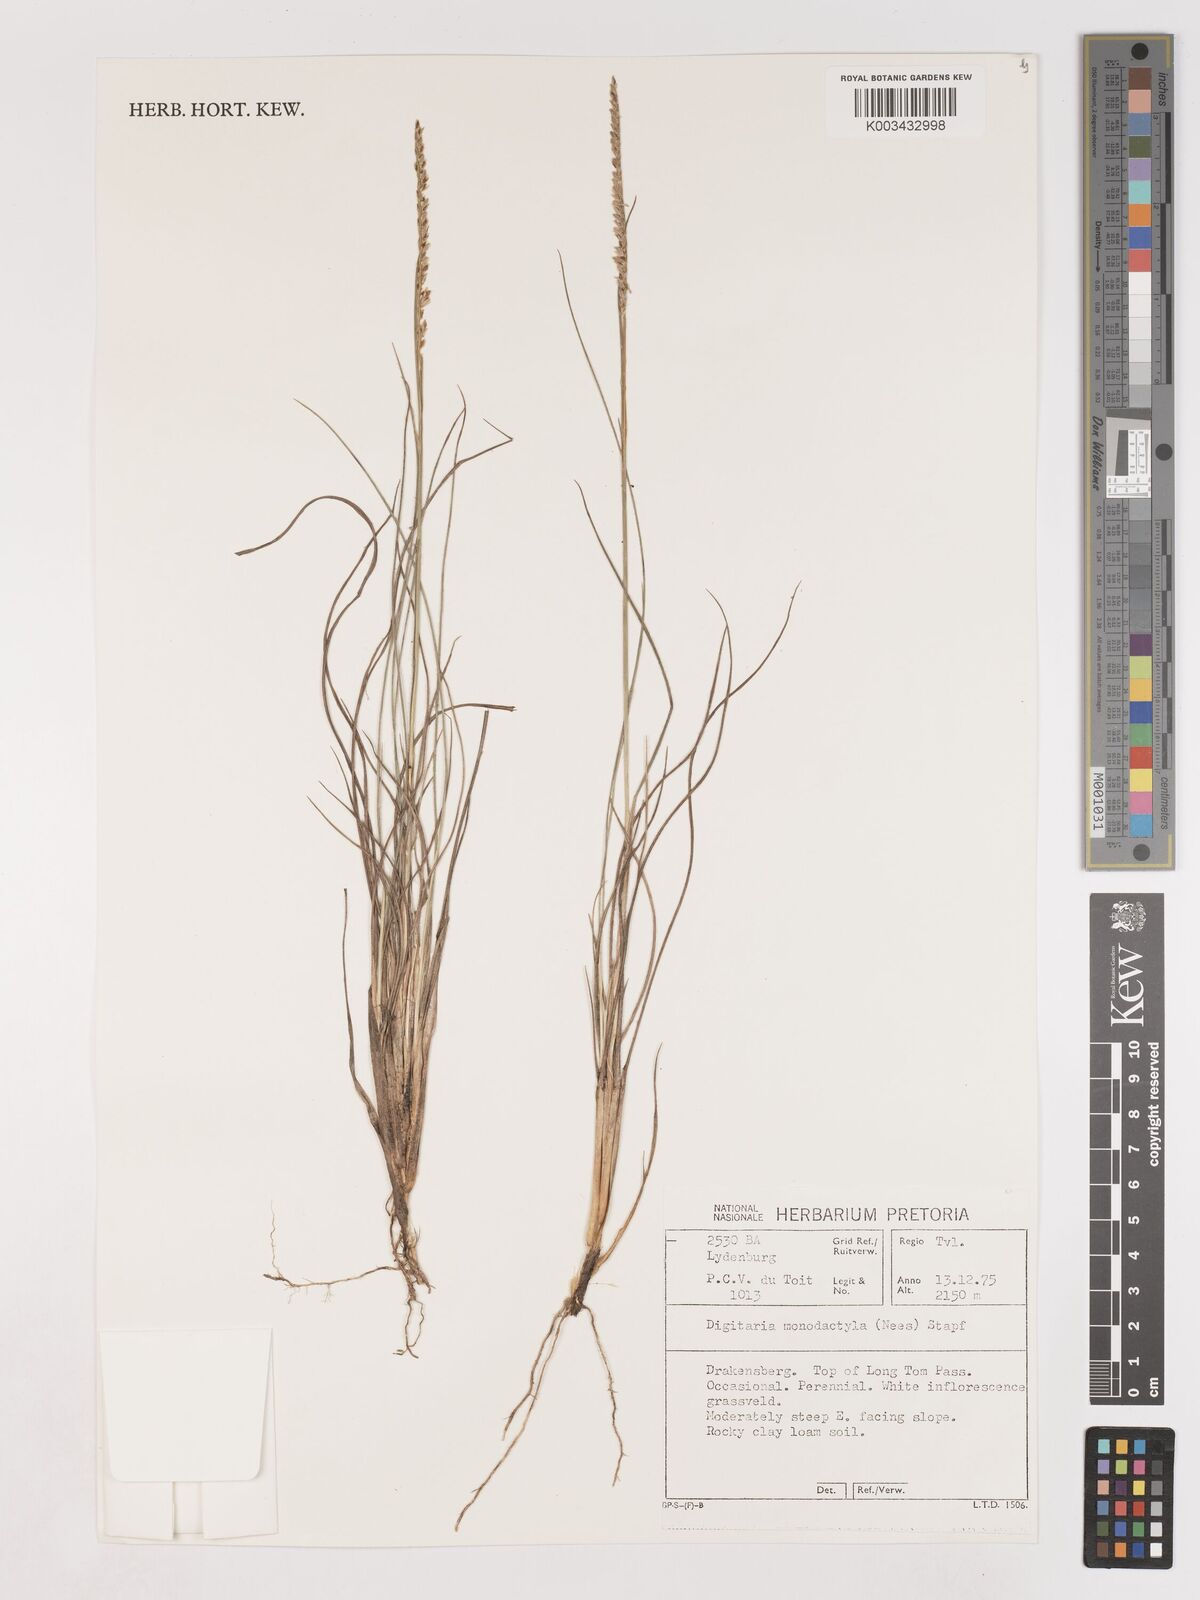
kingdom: Plantae
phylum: Tracheophyta
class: Liliopsida
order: Poales
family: Poaceae
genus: Digitaria
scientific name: Digitaria monodactyla
